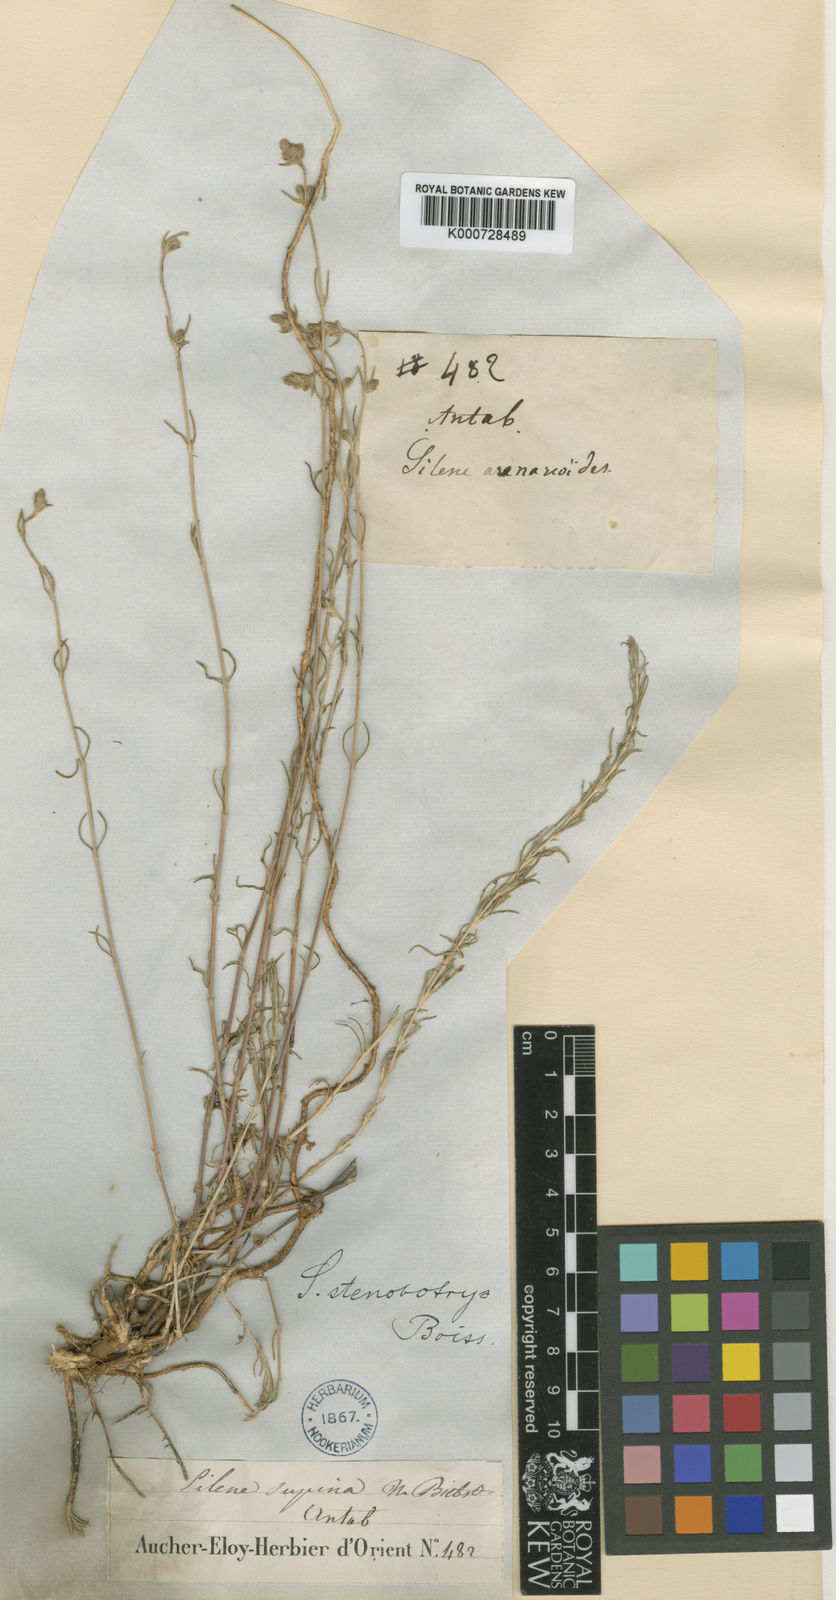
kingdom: Plantae
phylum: Tracheophyta
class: Magnoliopsida
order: Caryophyllales
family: Caryophyllaceae
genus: Silene
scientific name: Silene stenobotrys
